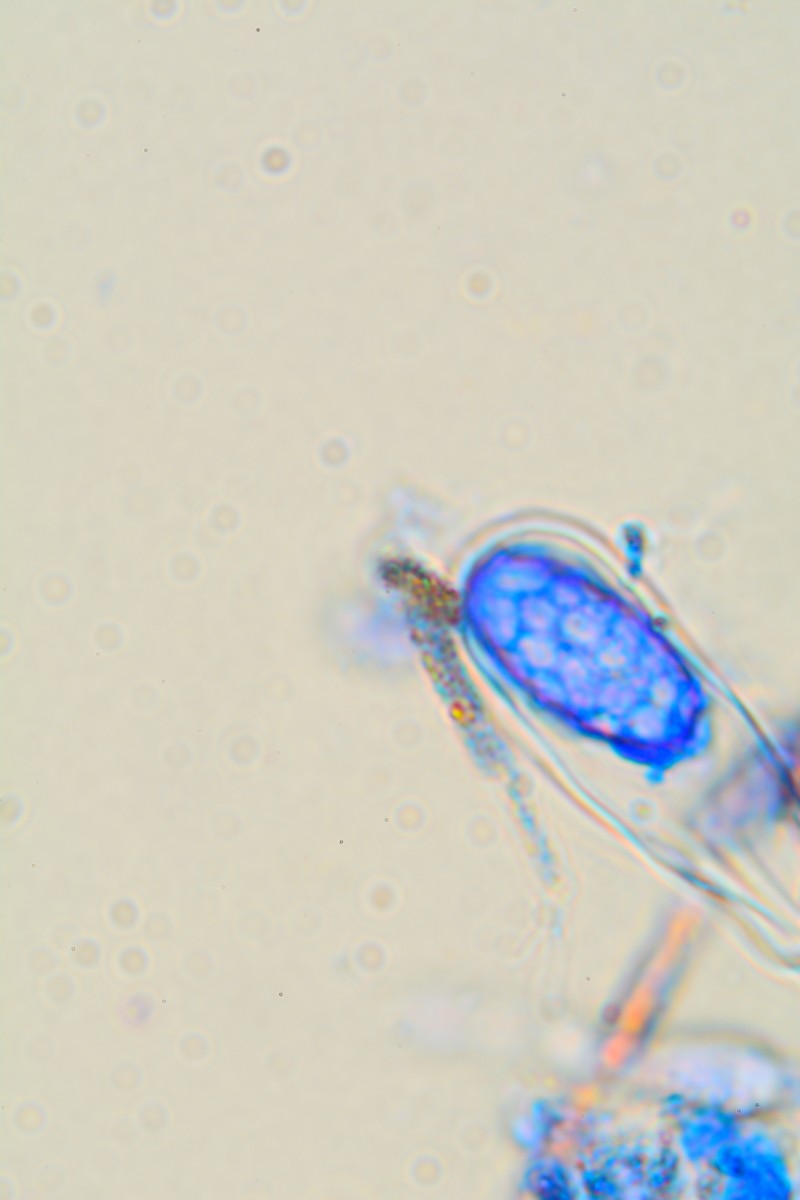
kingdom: Fungi
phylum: Ascomycota
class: Pezizomycetes
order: Pezizales
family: Pyronemataceae
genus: Melastiza
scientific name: Melastiza cornubiensis
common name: mørkrandet rødbæger
